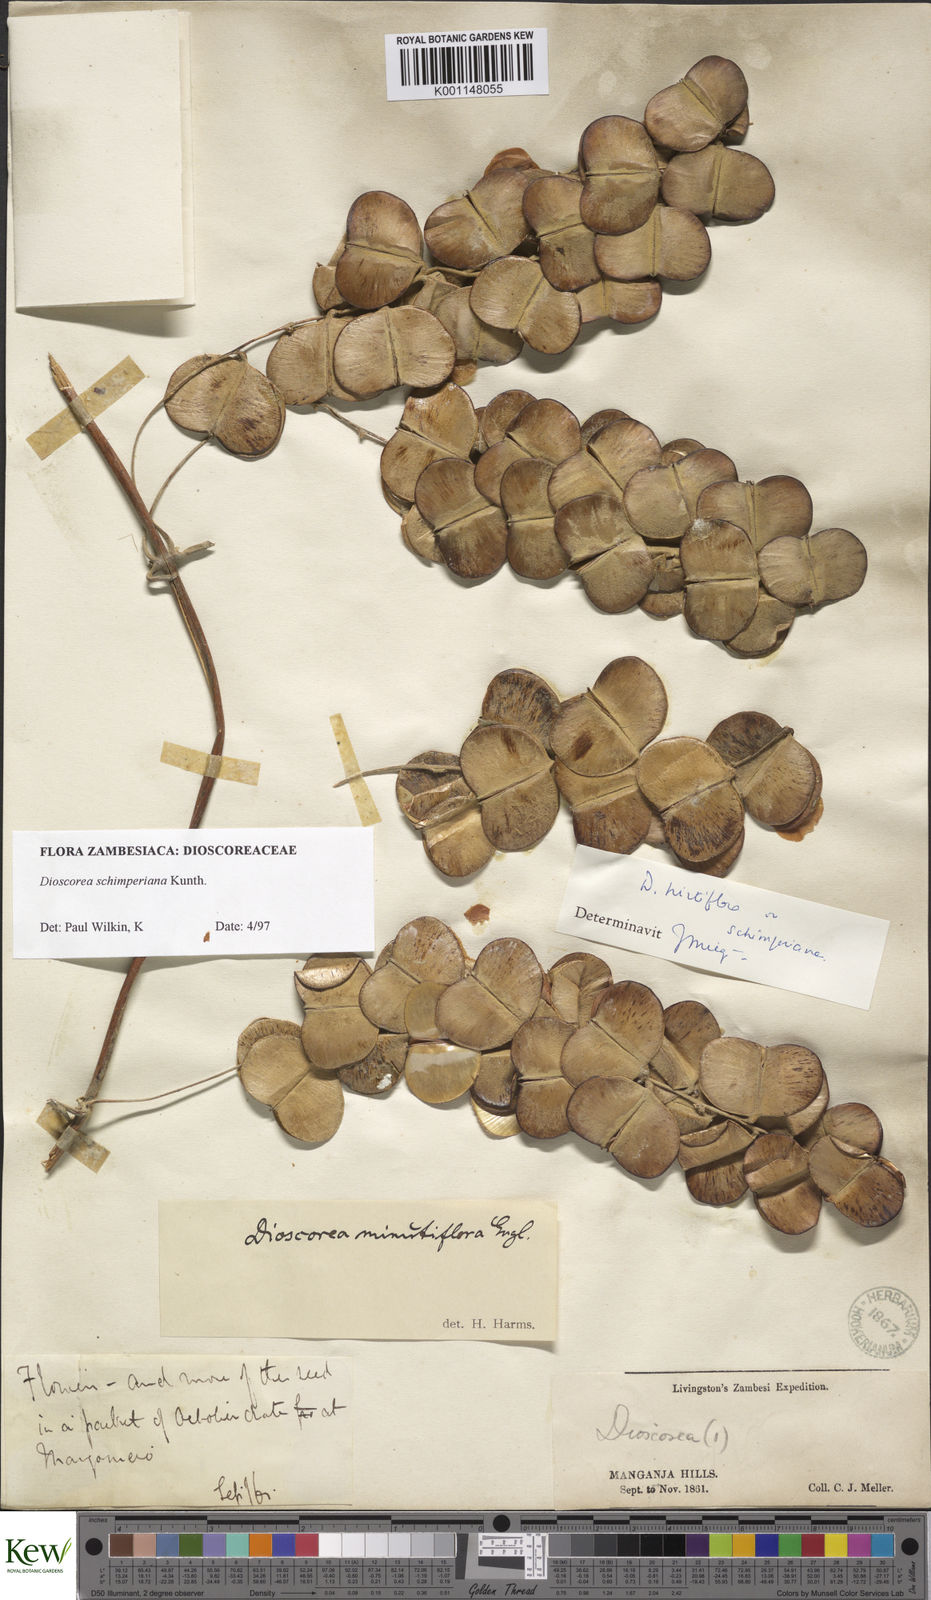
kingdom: Plantae
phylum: Tracheophyta
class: Liliopsida
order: Dioscoreales
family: Dioscoreaceae
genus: Dioscorea
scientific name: Dioscorea schimperiana
